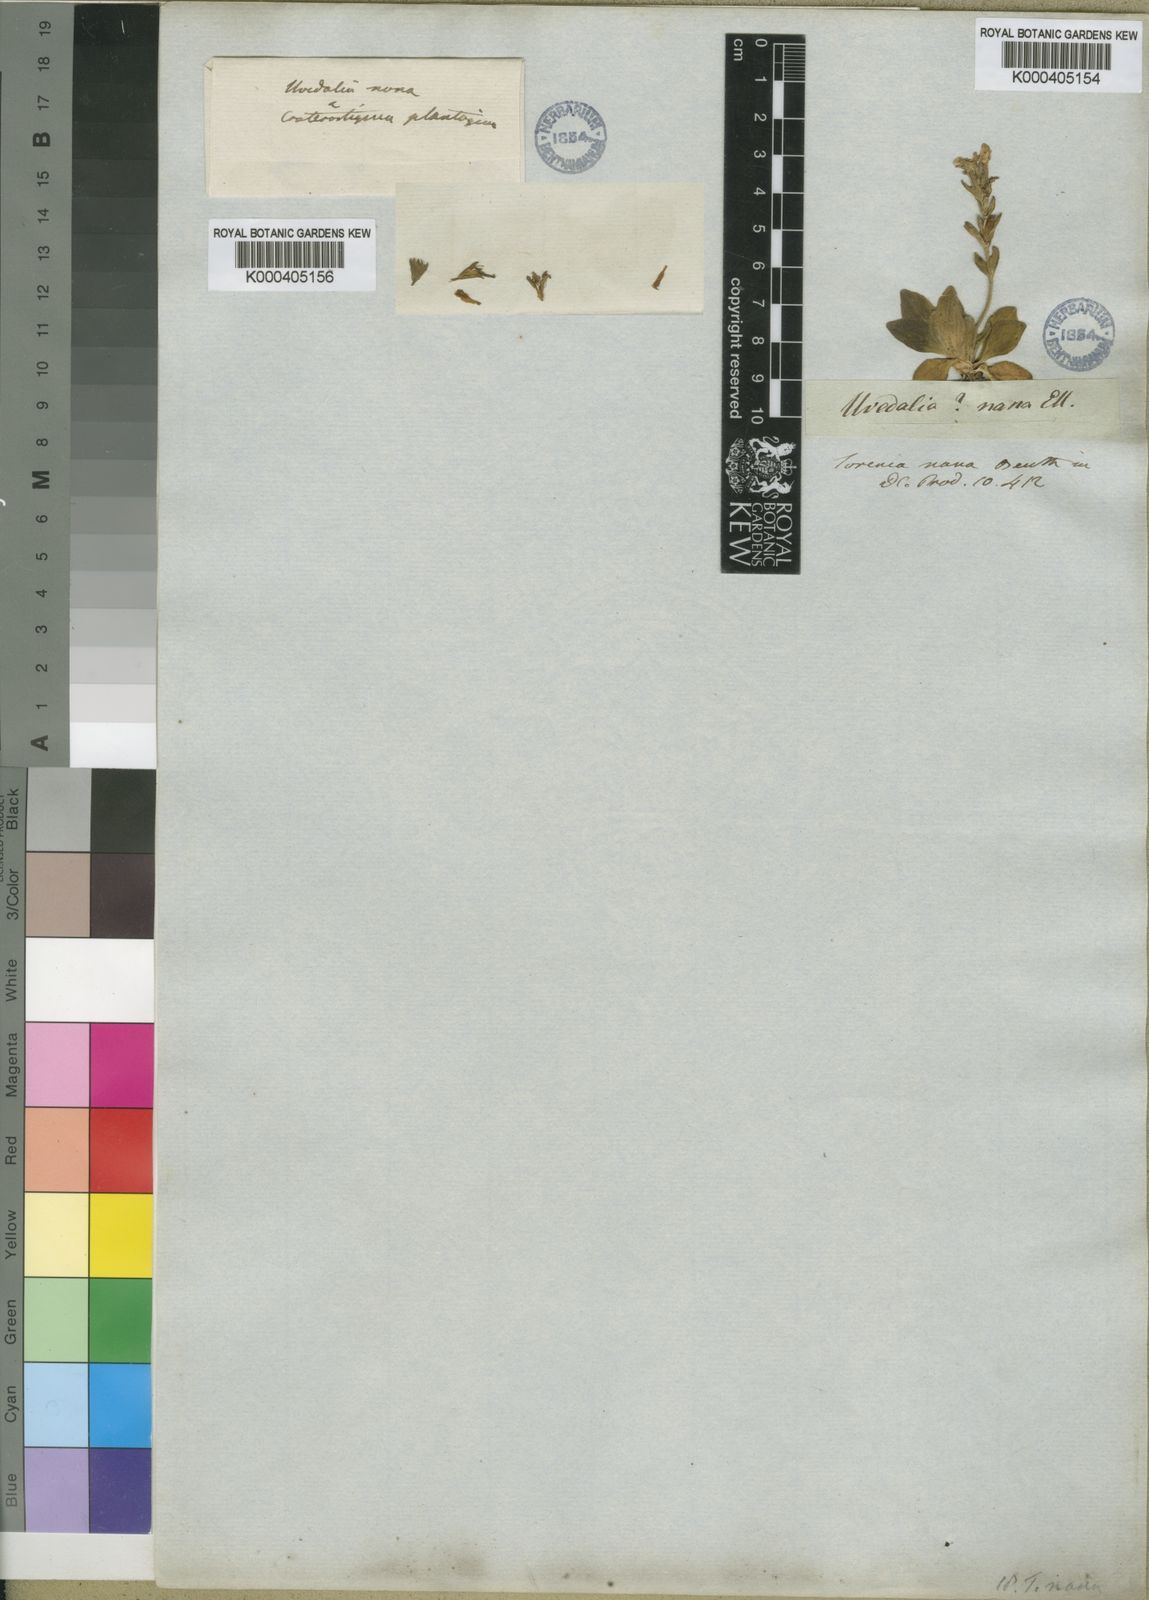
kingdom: Plantae
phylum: Tracheophyta
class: Magnoliopsida
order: Lamiales
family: Linderniaceae
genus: Craterostigma
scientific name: Craterostigma plantagineum
